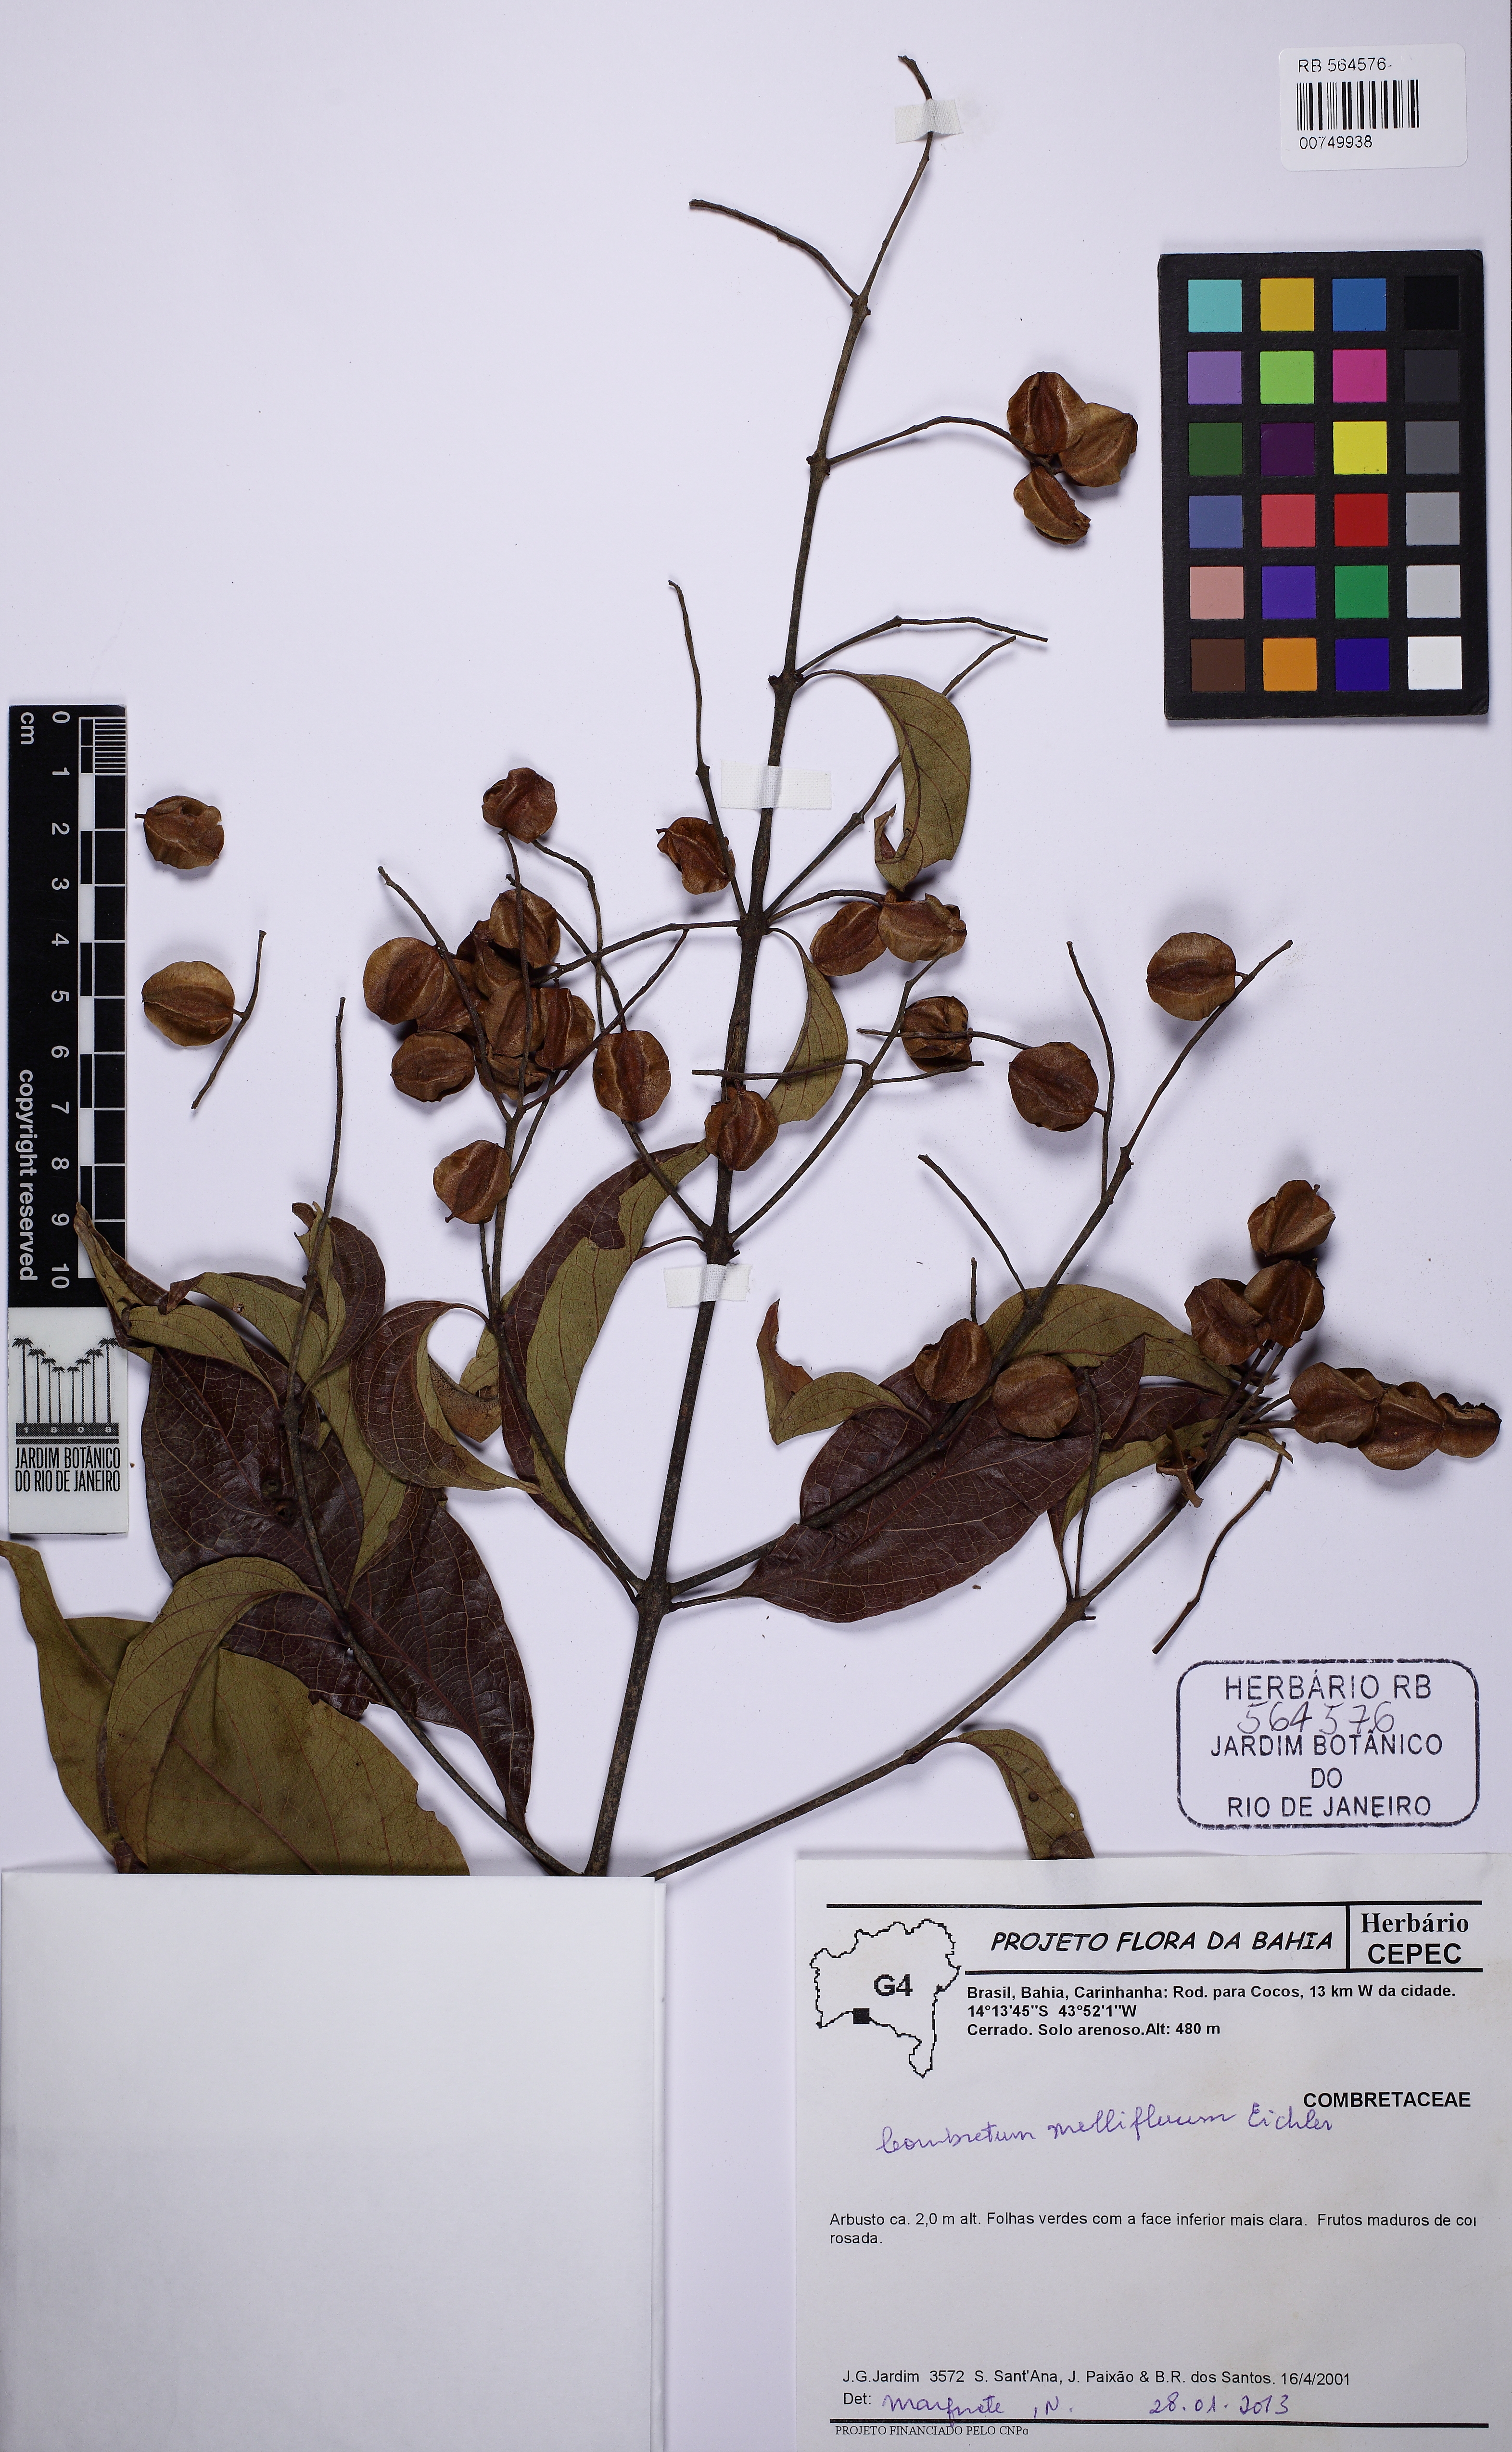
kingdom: Plantae
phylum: Tracheophyta
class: Magnoliopsida
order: Myrtales
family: Combretaceae
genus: Combretum
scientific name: Combretum mellifluum
